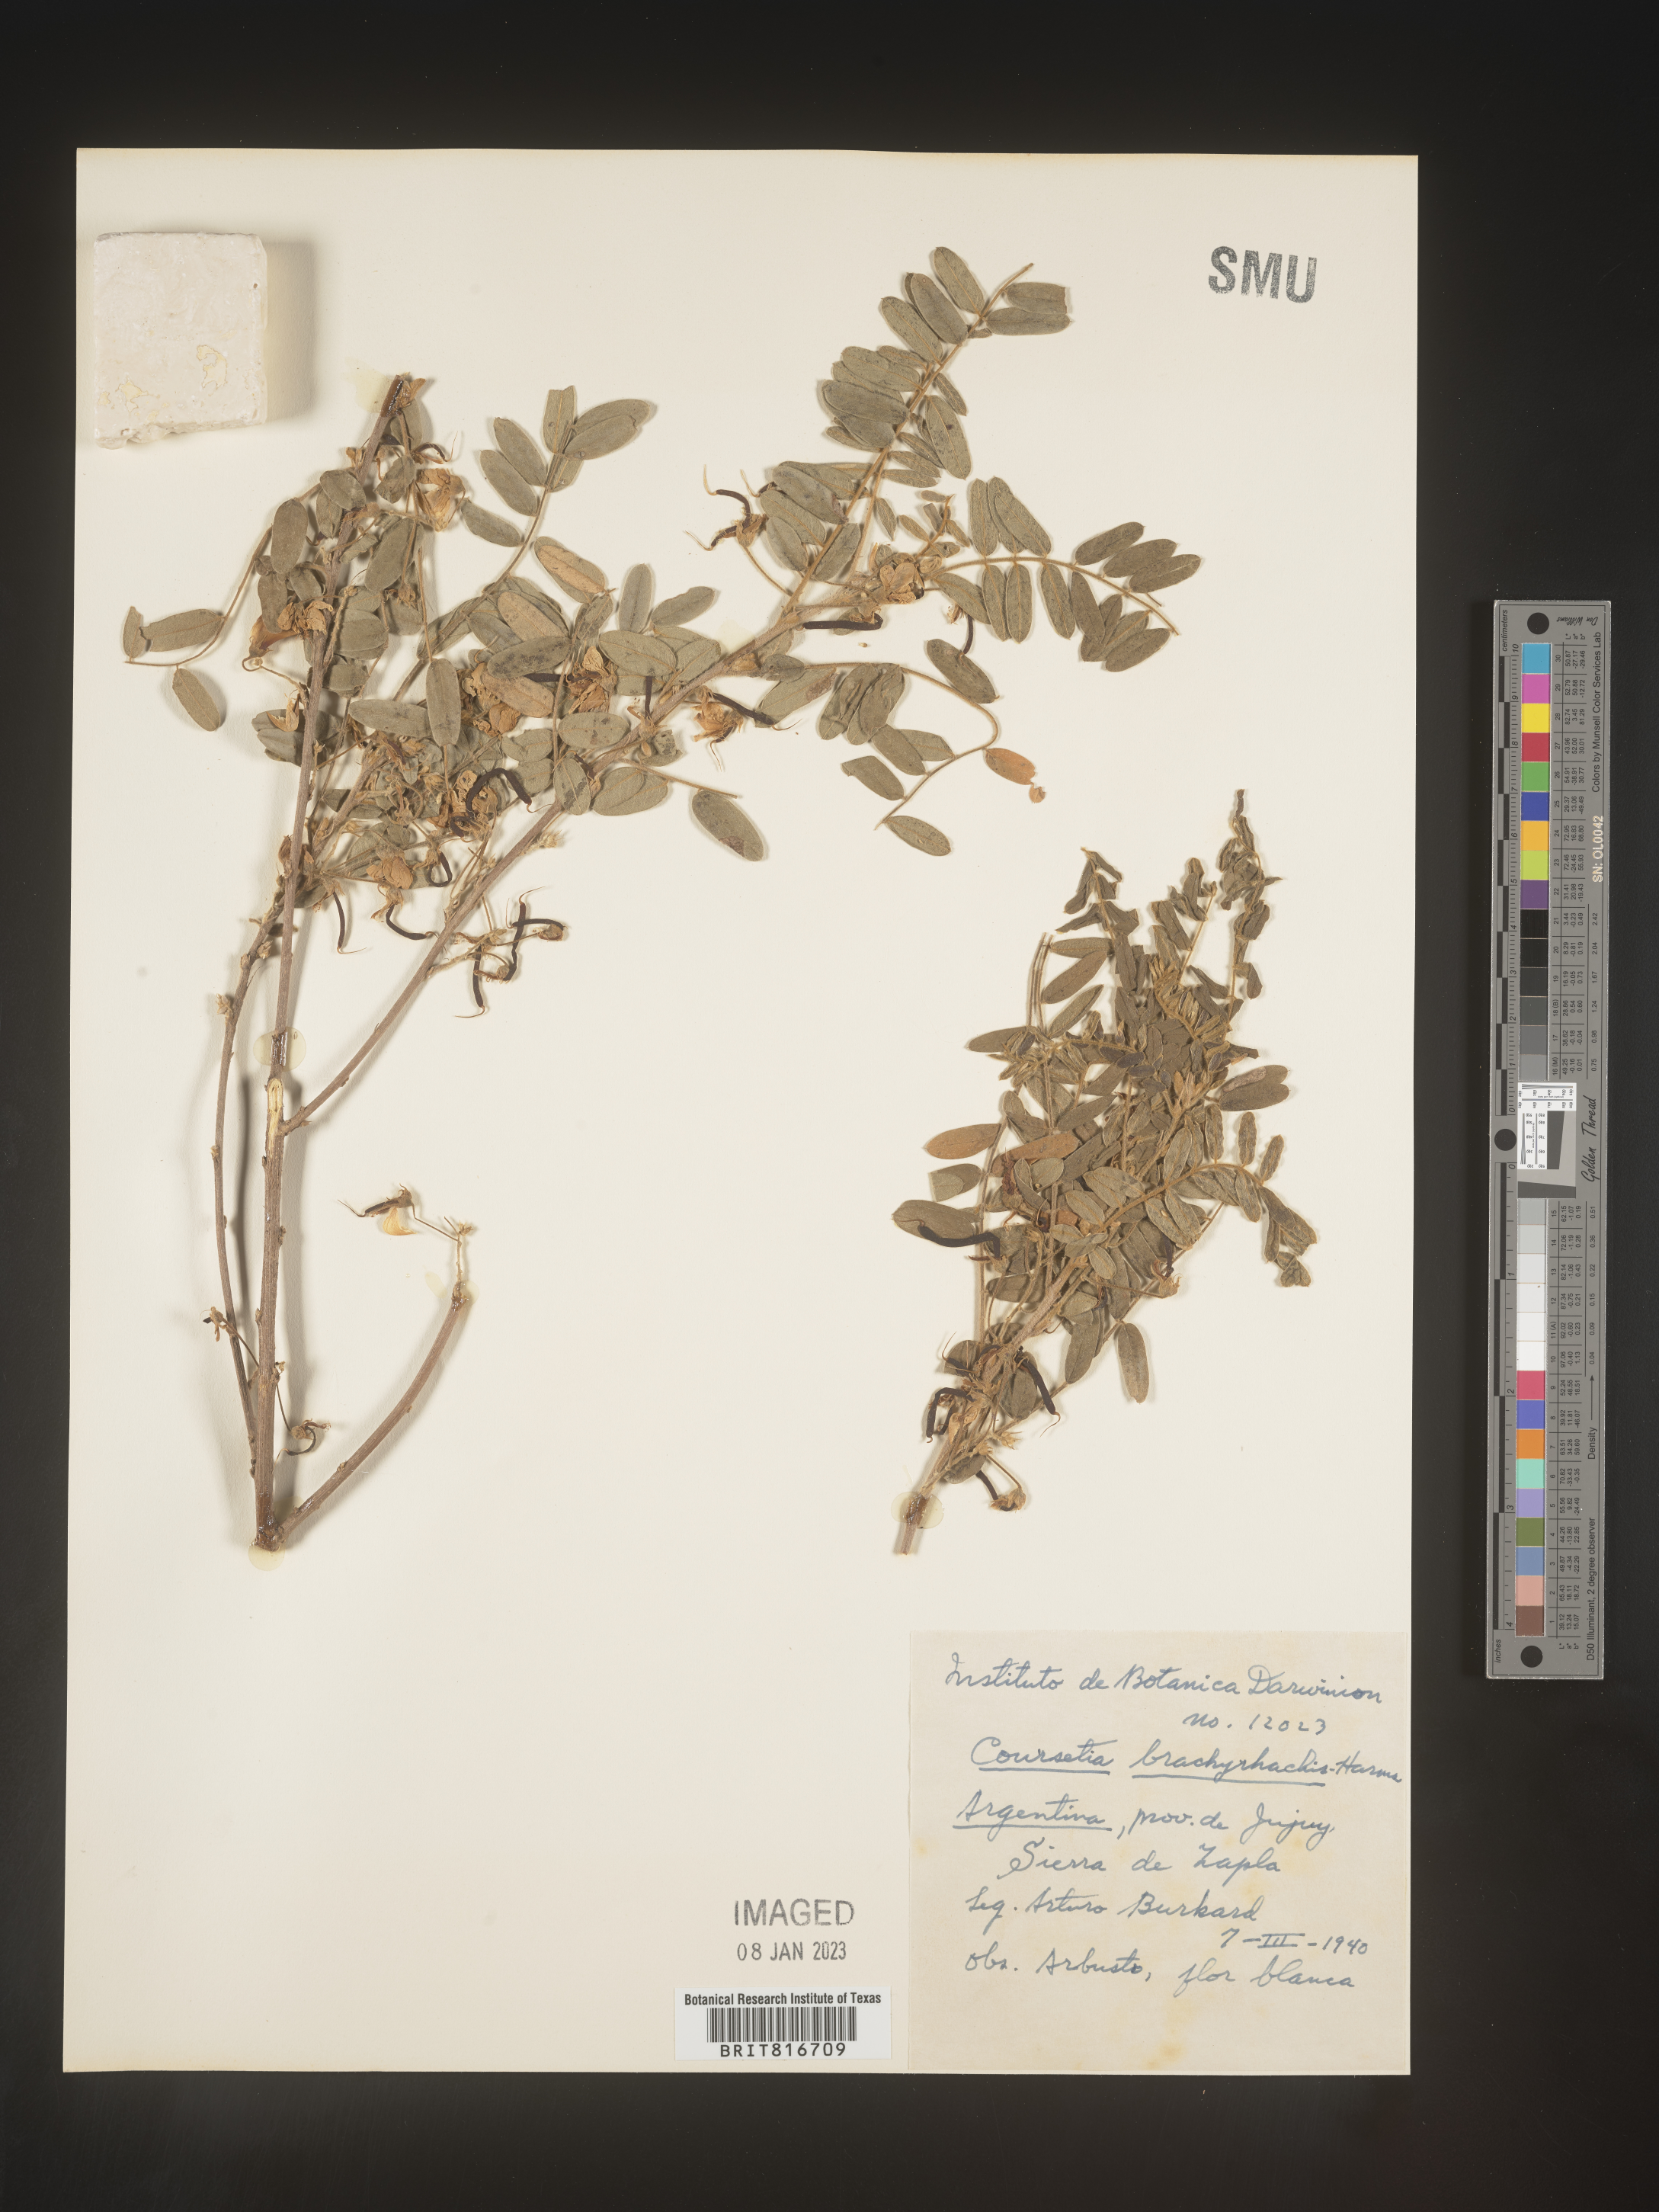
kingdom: Plantae
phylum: Tracheophyta
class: Magnoliopsida
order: Fabales
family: Fabaceae
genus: Coursetia
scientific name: Coursetia
